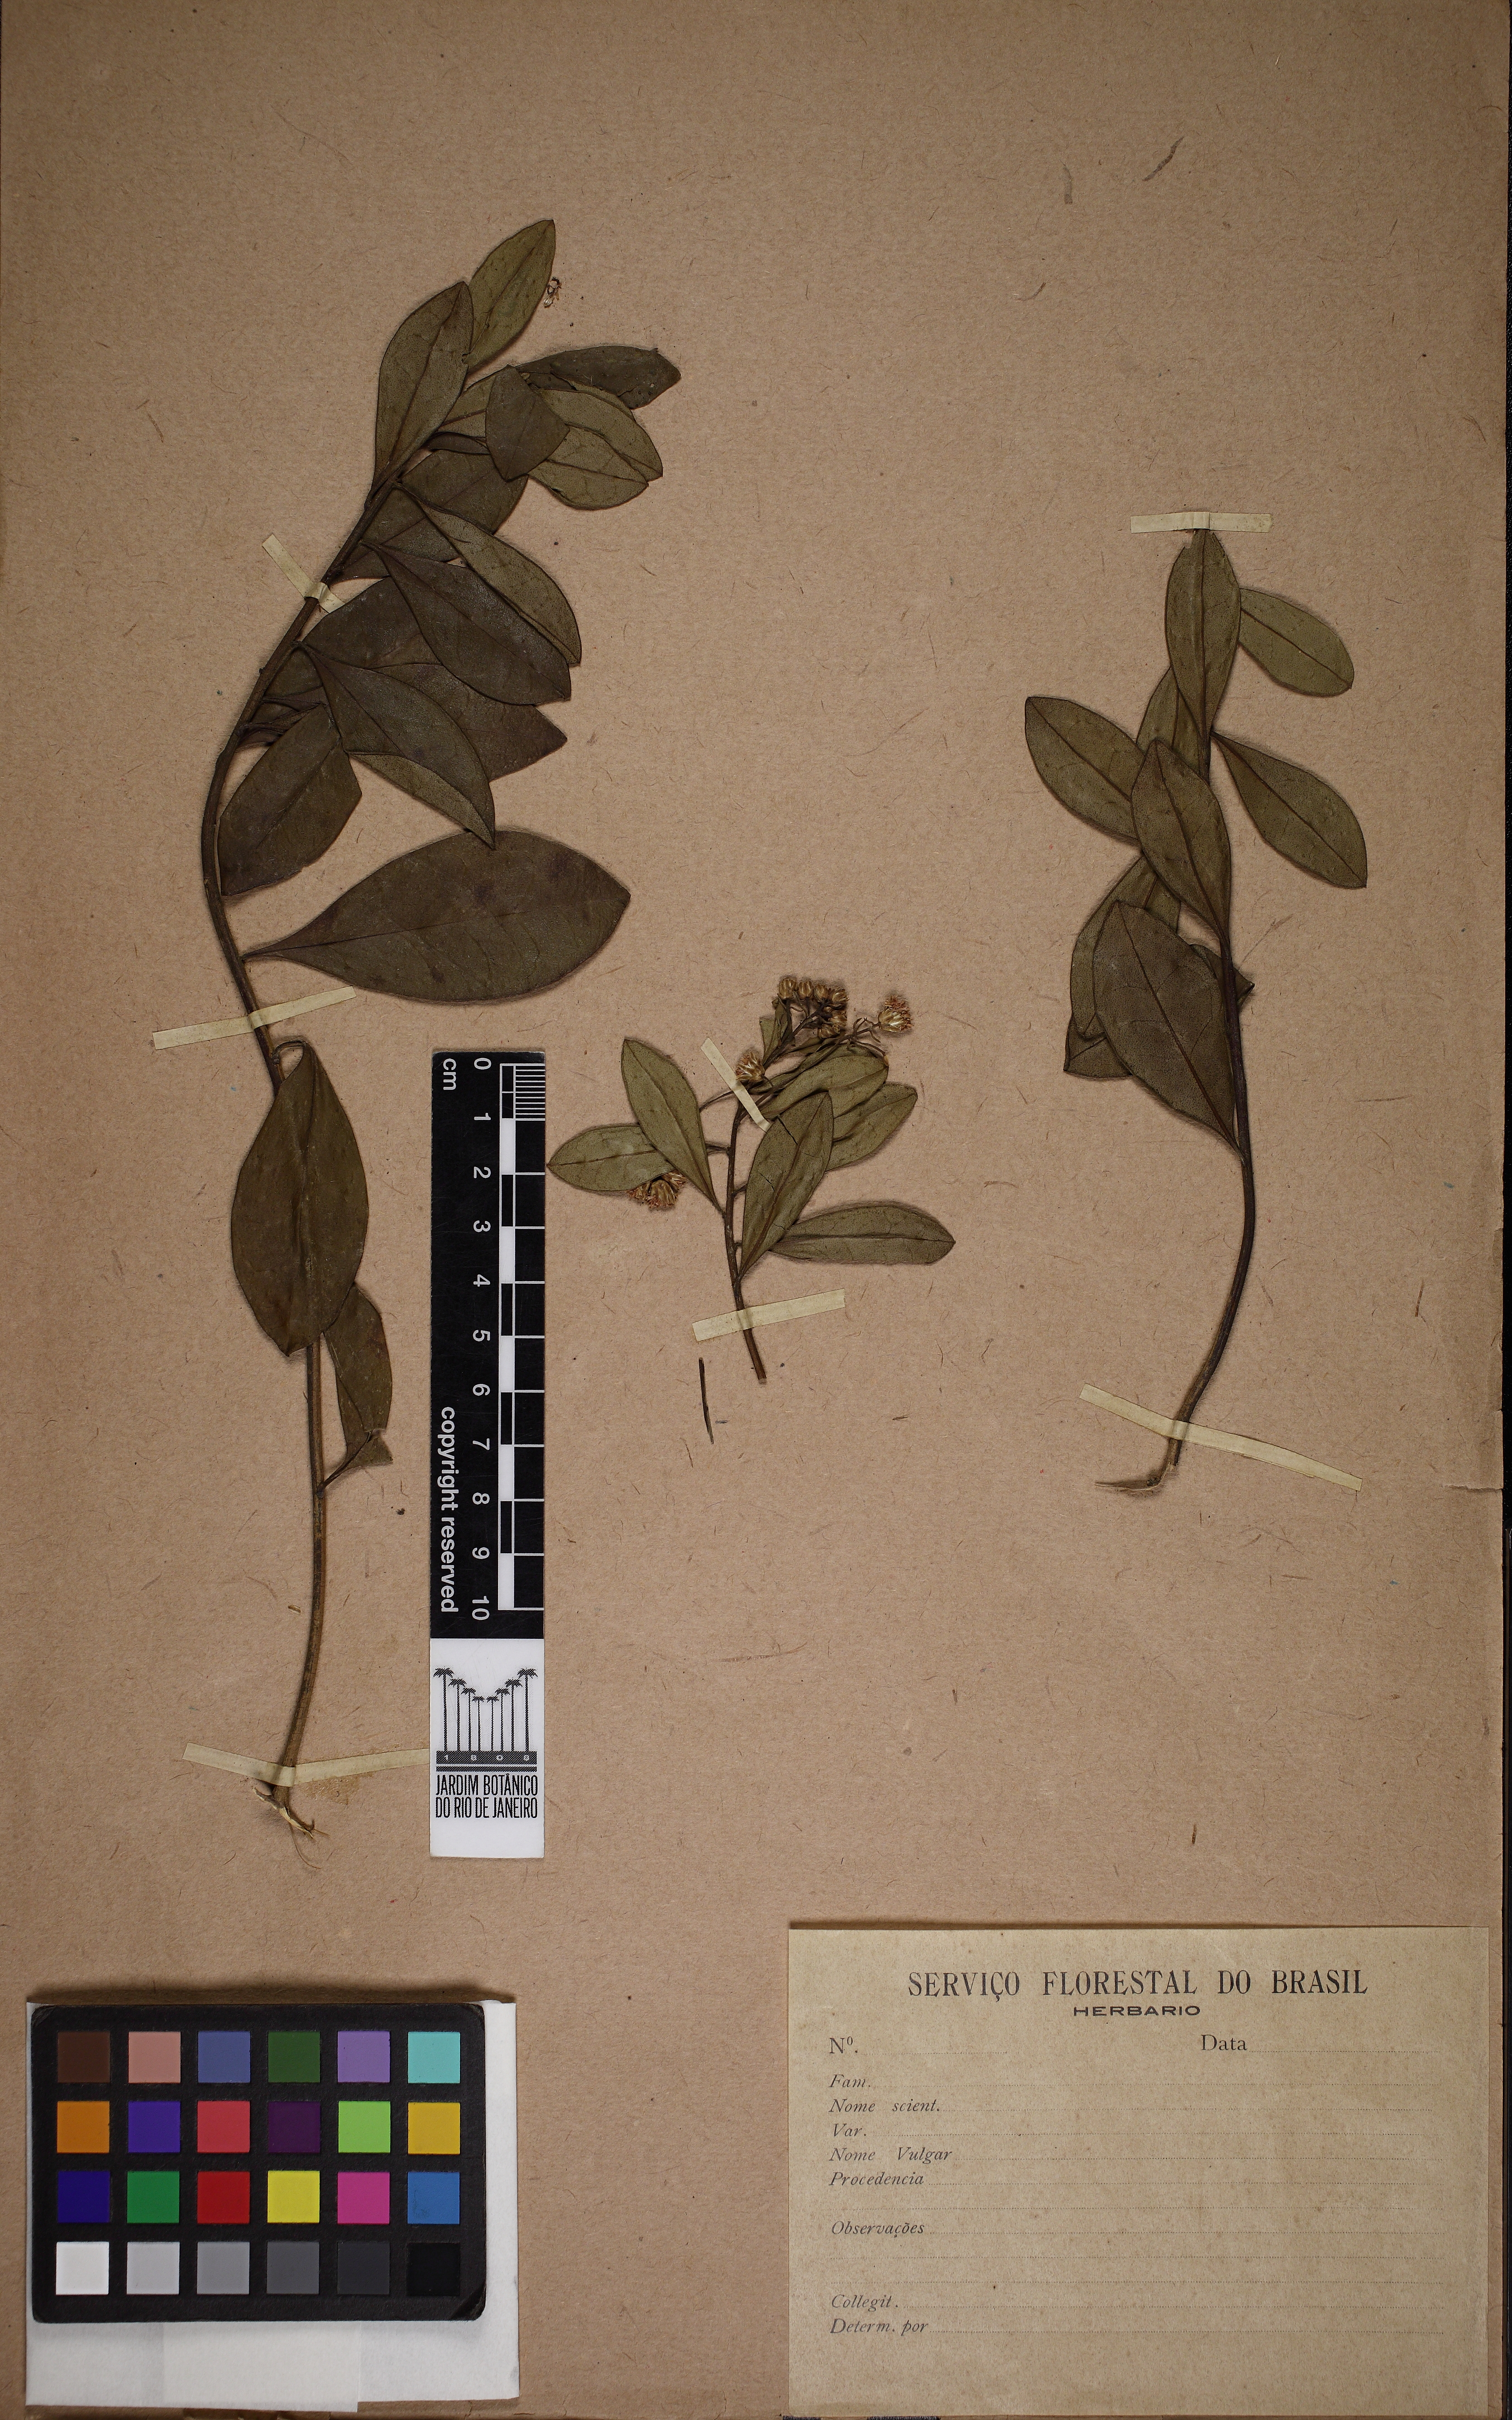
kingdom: Plantae
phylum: Tracheophyta
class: Magnoliopsida
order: Asterales
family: Asteraceae
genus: Baccharis
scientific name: Baccharis malmei
